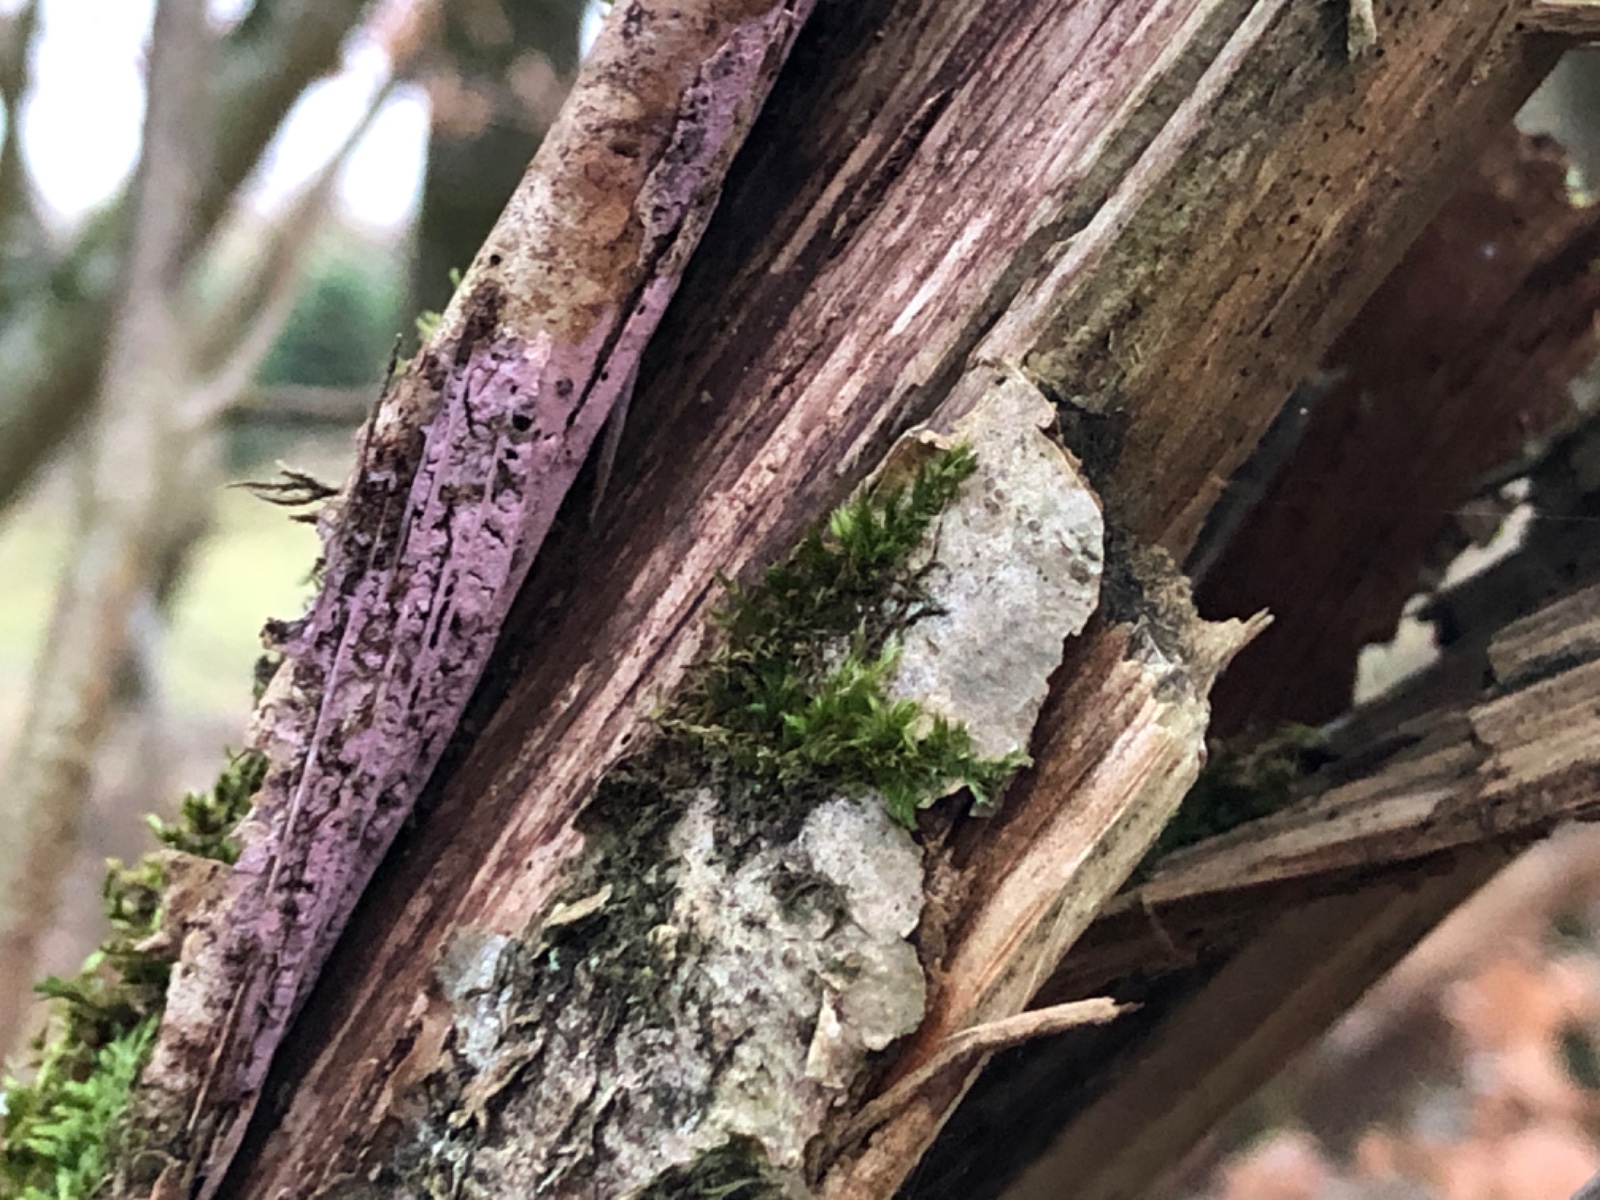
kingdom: Fungi
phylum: Basidiomycota
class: Agaricomycetes
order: Cantharellales
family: Tulasnellaceae
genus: Tulasnella
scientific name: Tulasnella violea
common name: violet ballonhinde
